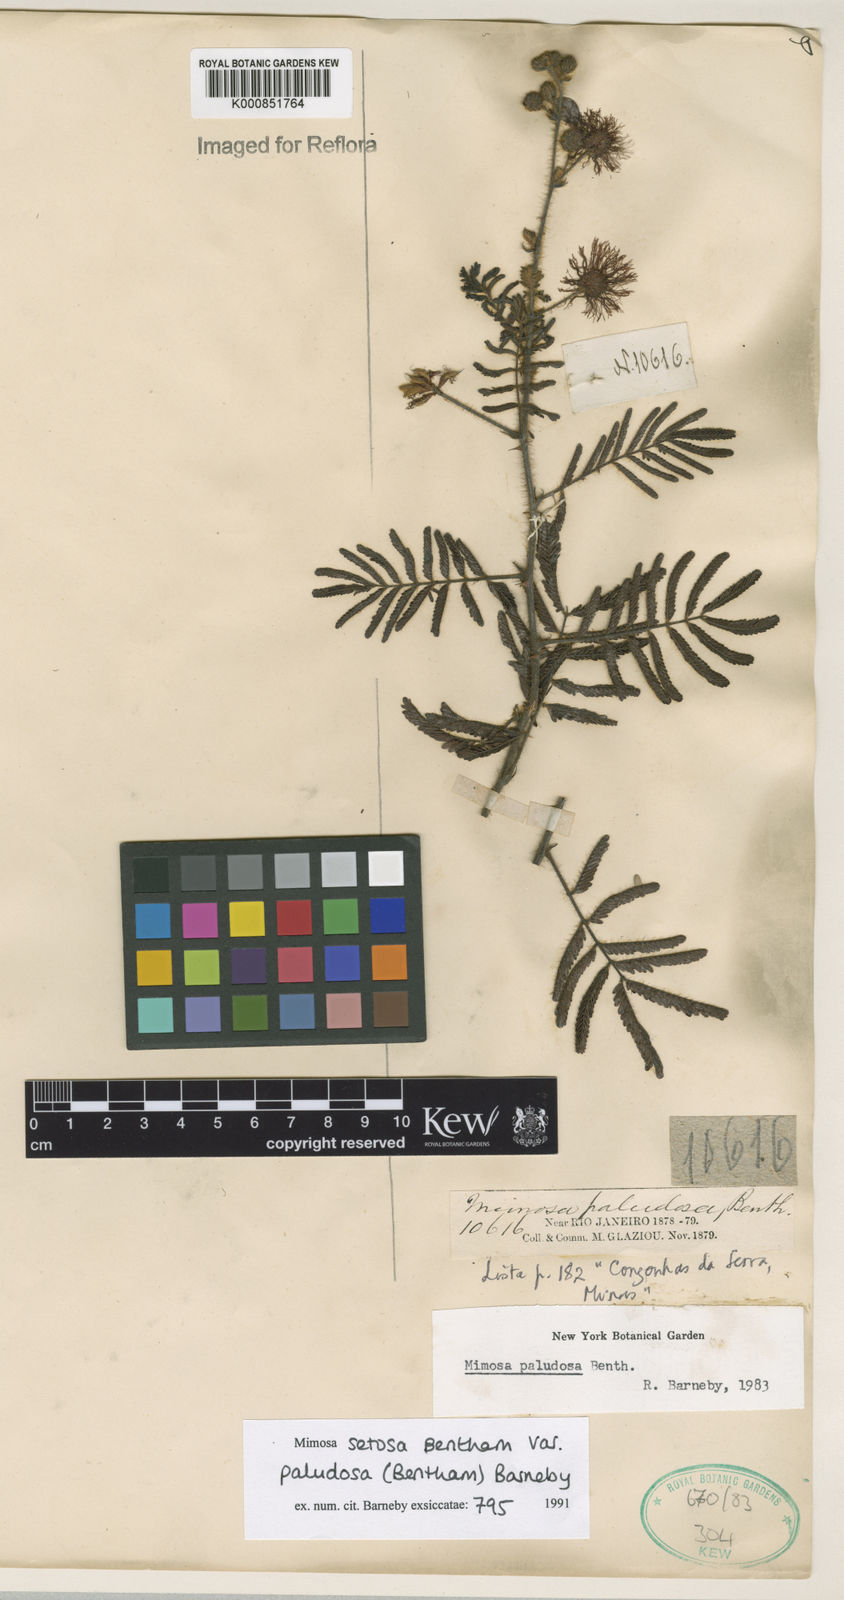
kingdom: Plantae
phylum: Tracheophyta
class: Magnoliopsida
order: Fabales
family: Fabaceae
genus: Mimosa
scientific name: Mimosa serpensetosa
